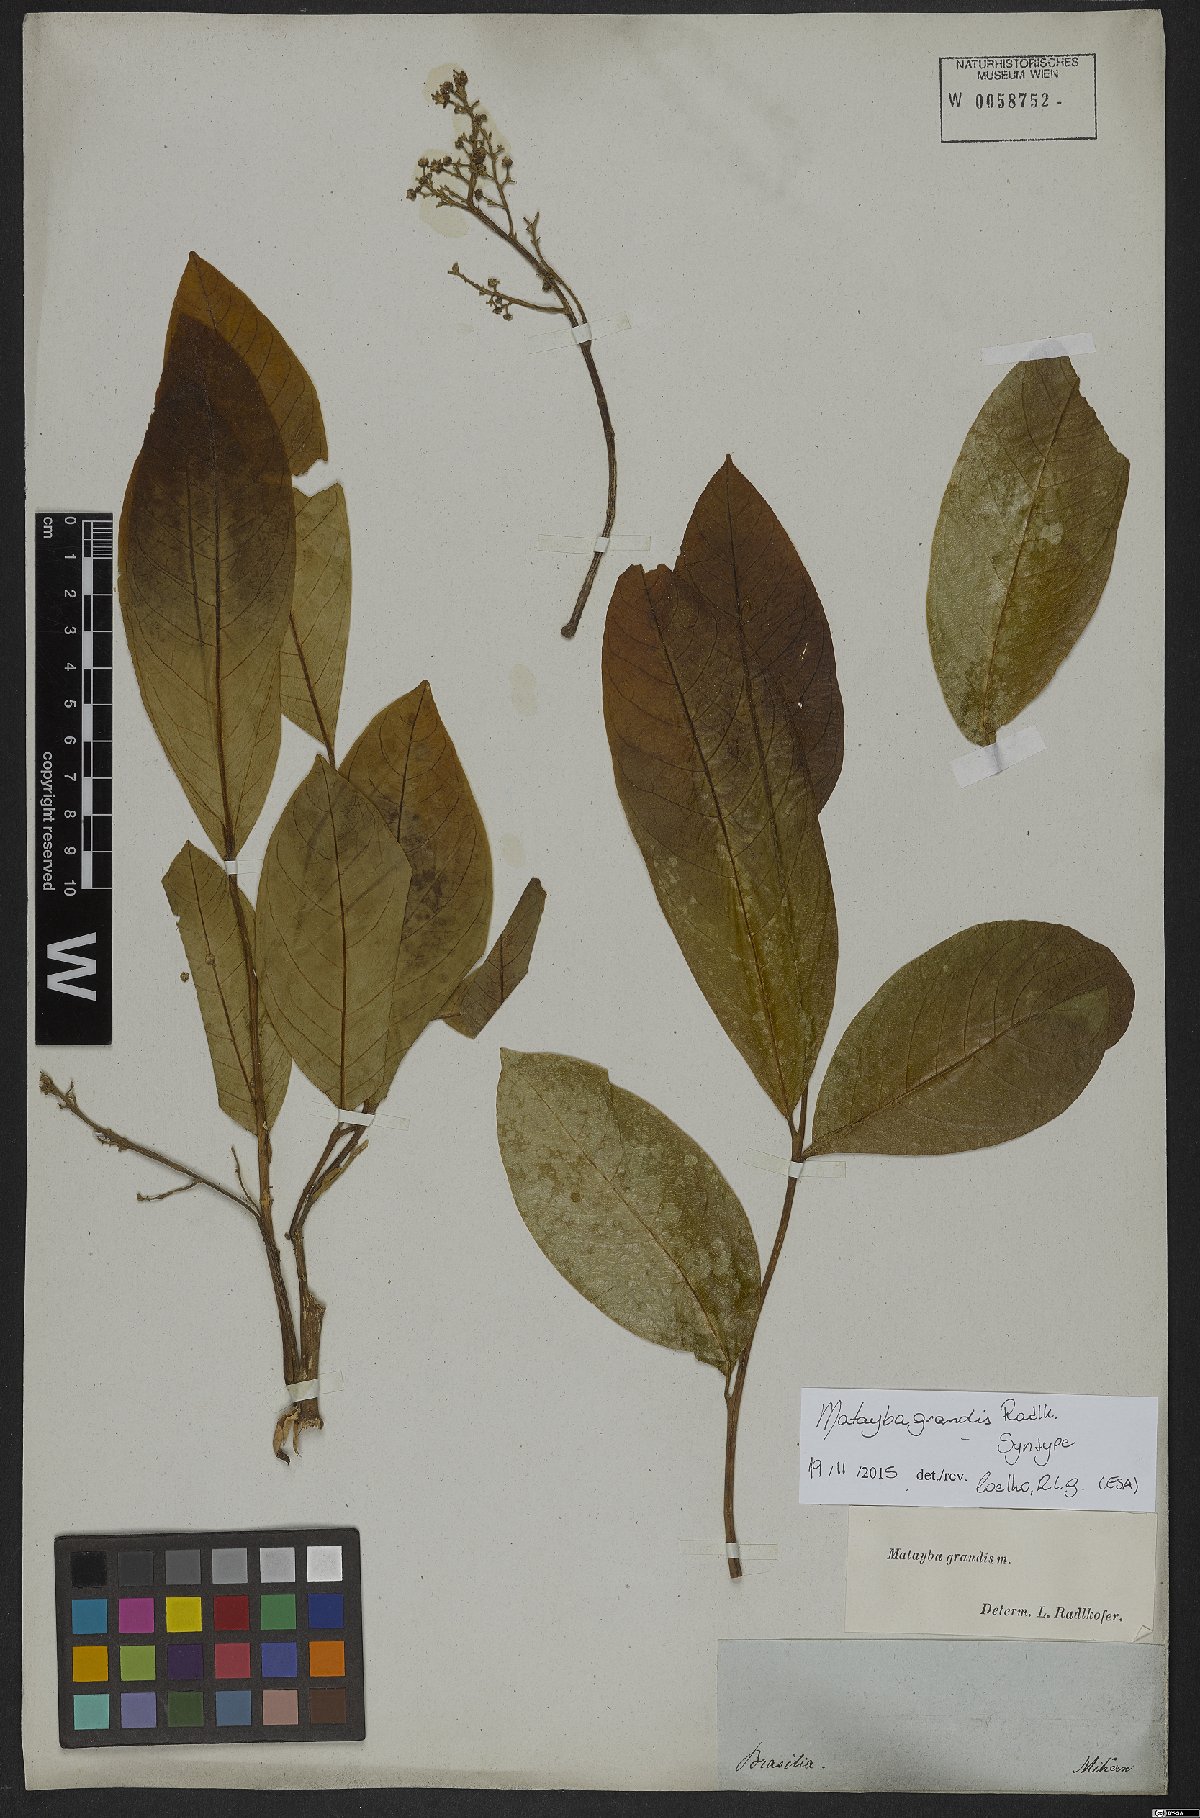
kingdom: Plantae
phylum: Tracheophyta
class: Magnoliopsida
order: Sapindales
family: Sapindaceae
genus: Matayba
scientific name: Matayba grandis
